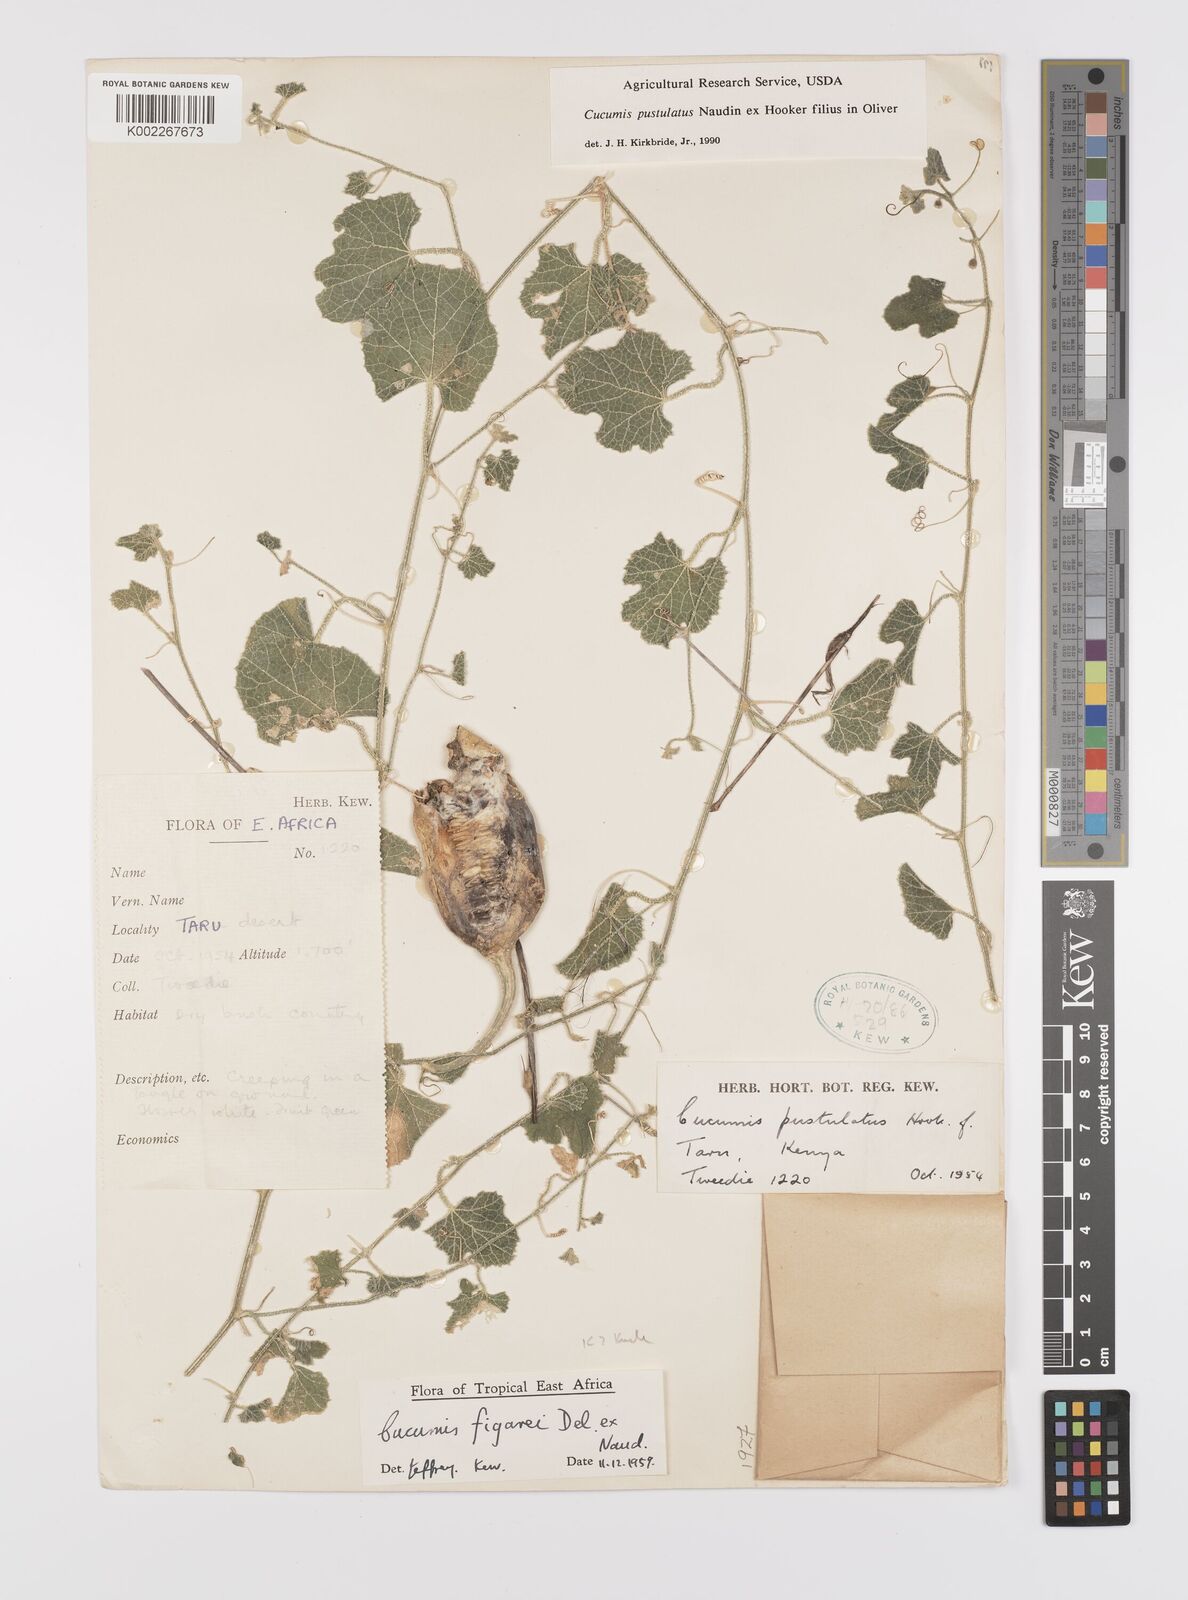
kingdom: Plantae
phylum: Tracheophyta
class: Magnoliopsida
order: Cucurbitales
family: Cucurbitaceae
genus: Cucumis
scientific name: Cucumis
